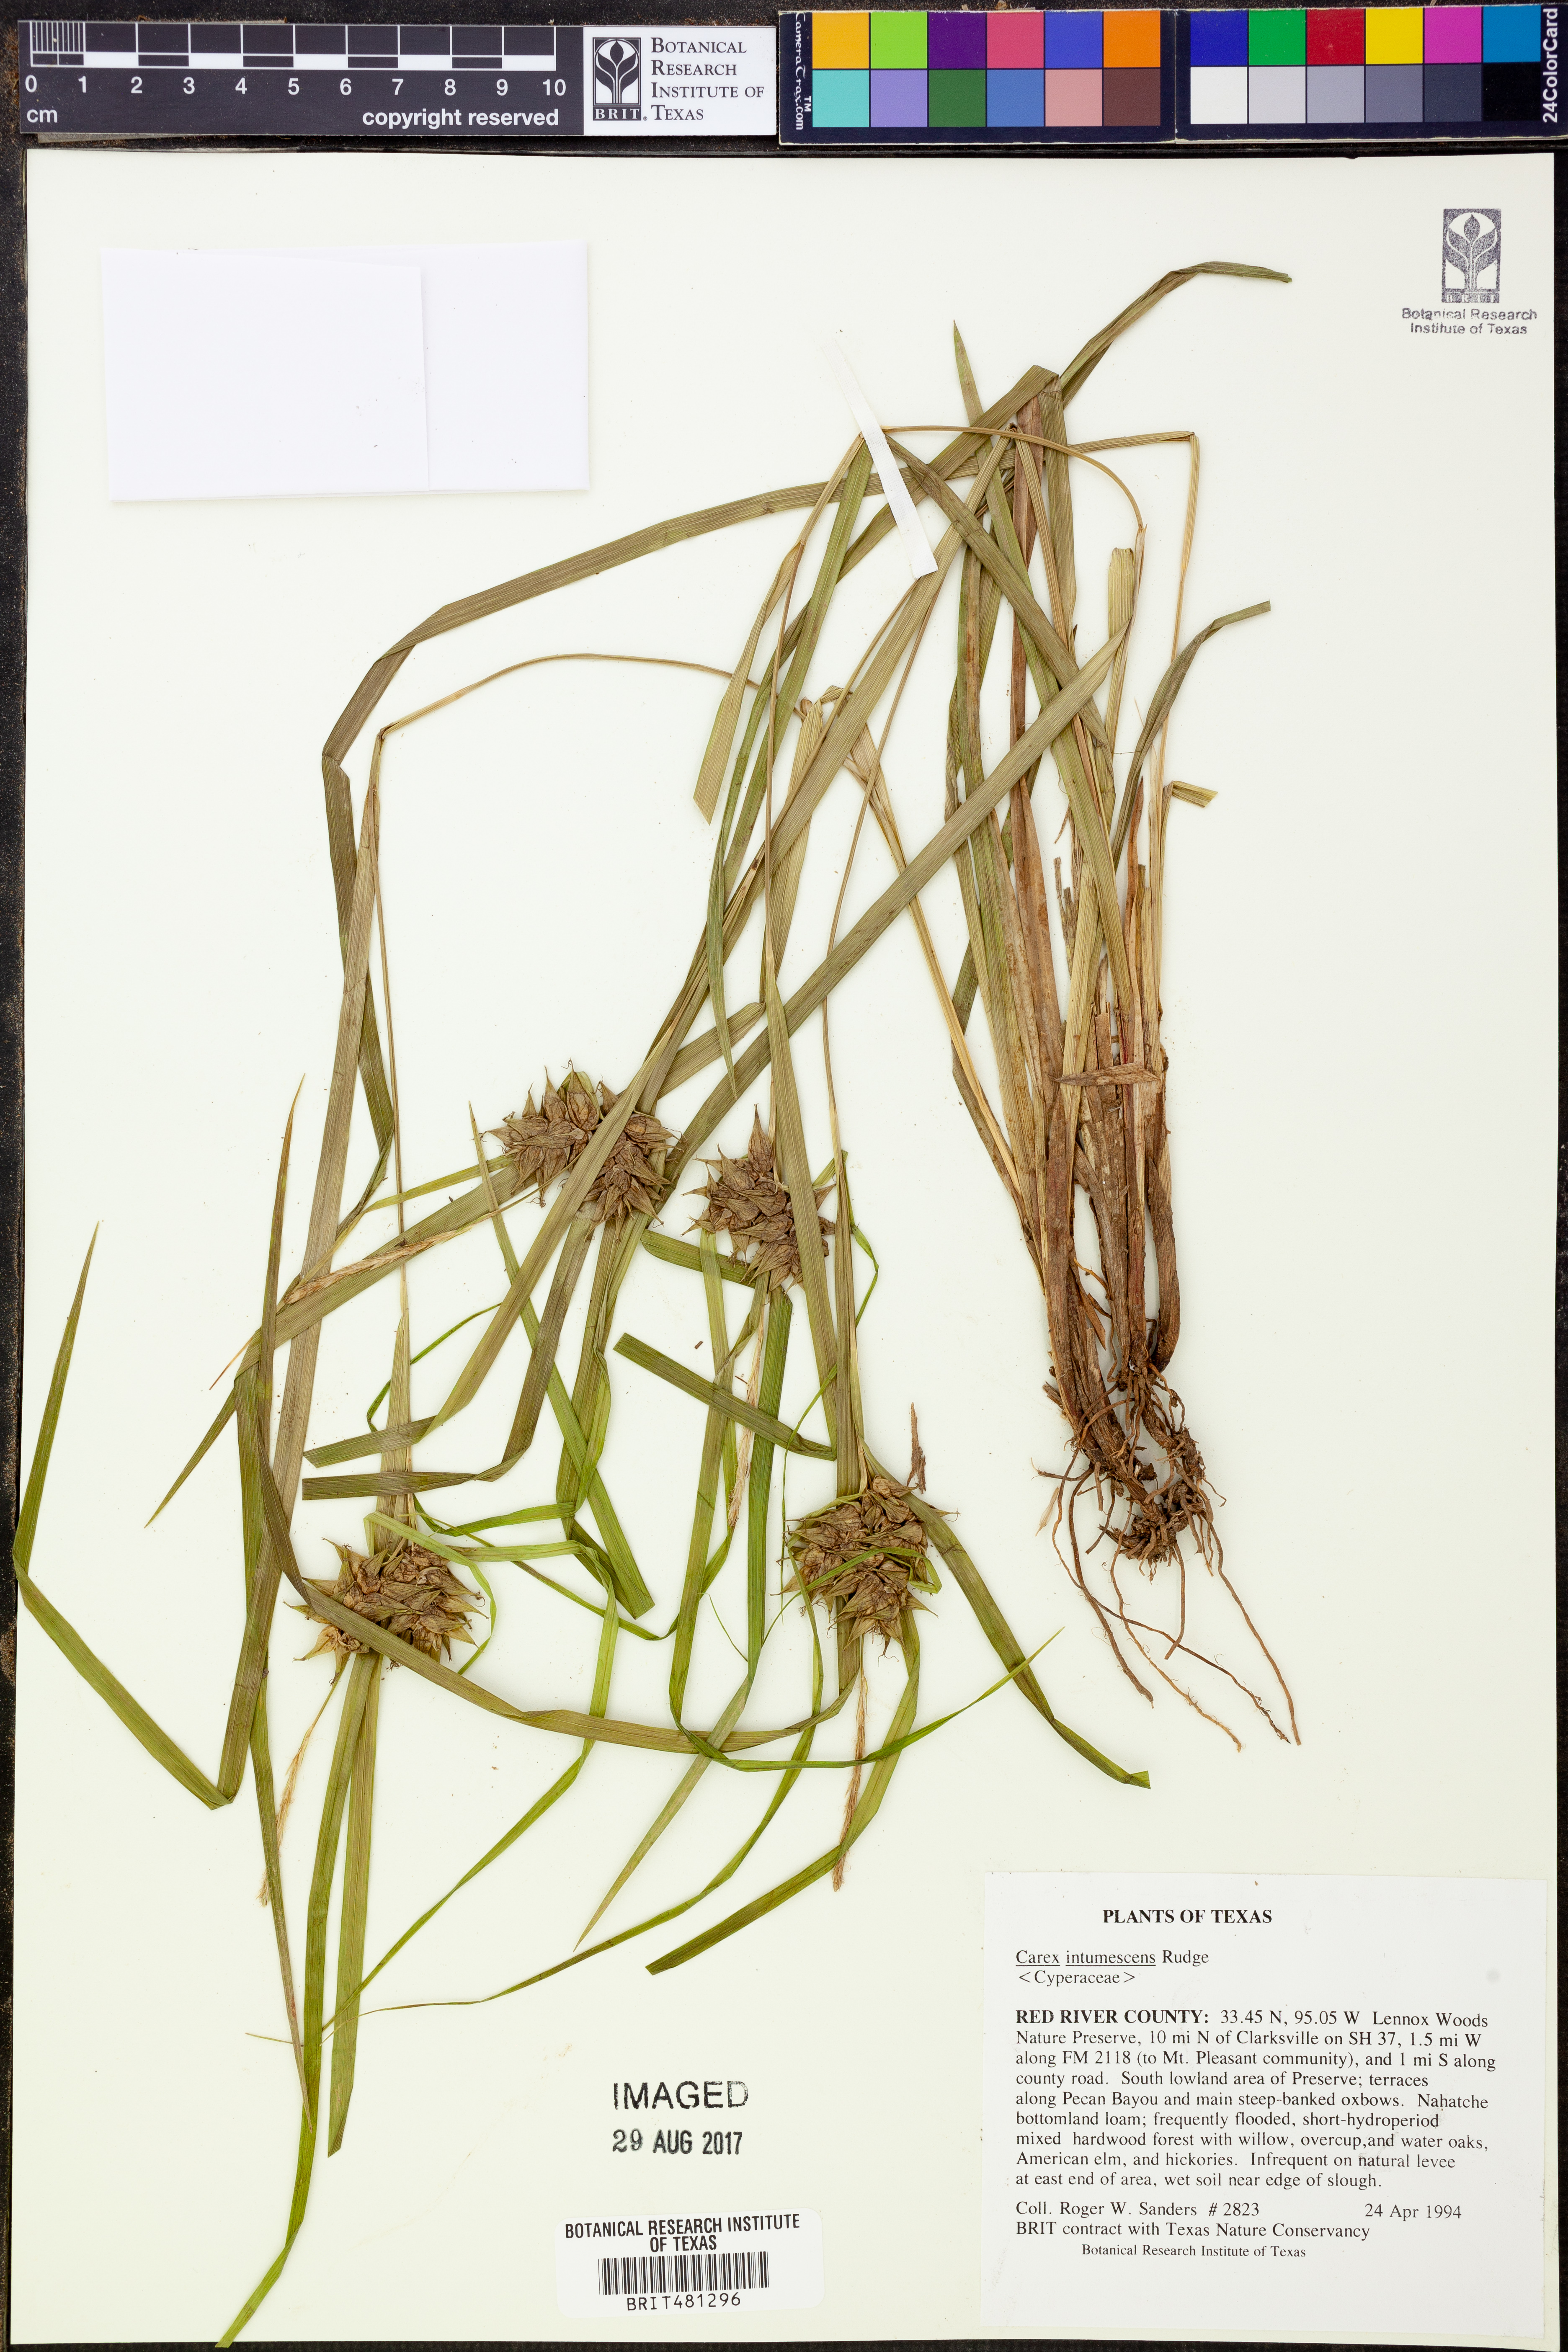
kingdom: Plantae
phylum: Tracheophyta
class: Liliopsida
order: Poales
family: Cyperaceae
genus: Carex
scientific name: Carex intumescens
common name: Greater bladder sedge
